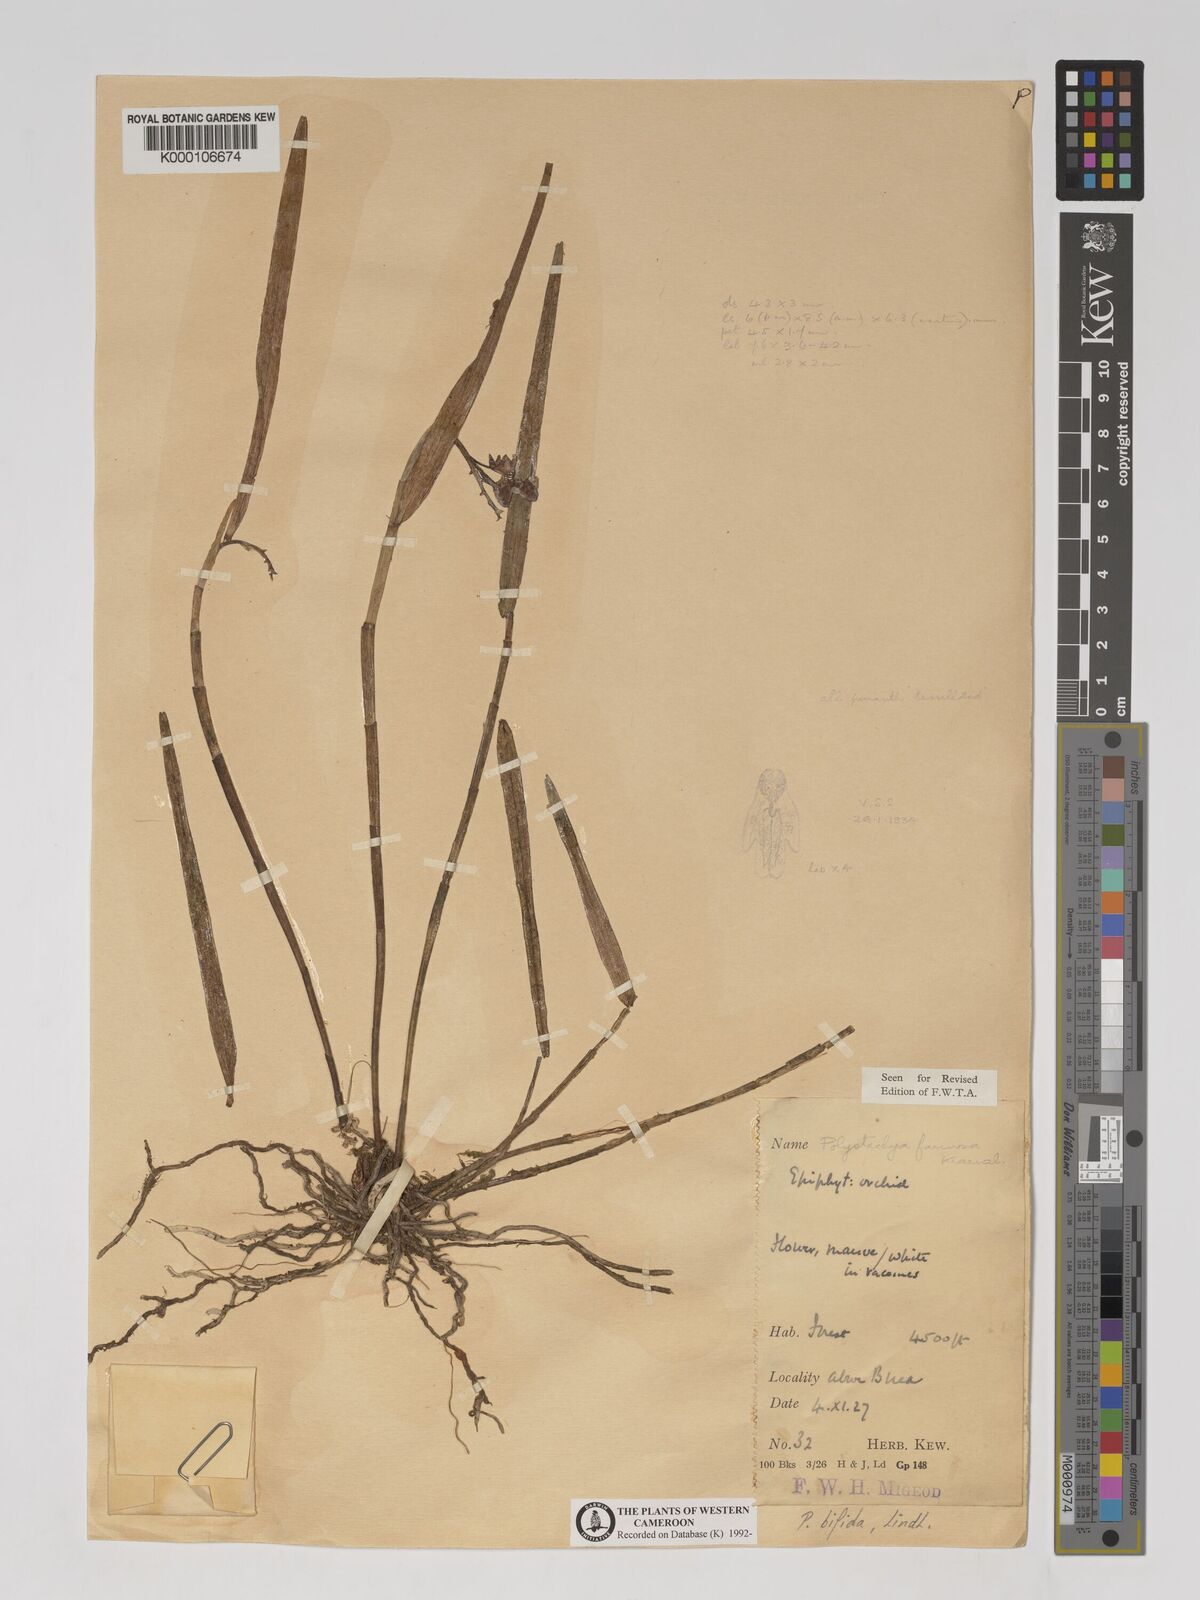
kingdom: Plantae
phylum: Tracheophyta
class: Liliopsida
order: Asparagales
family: Orchidaceae
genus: Polystachya
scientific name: Polystachya bifida
